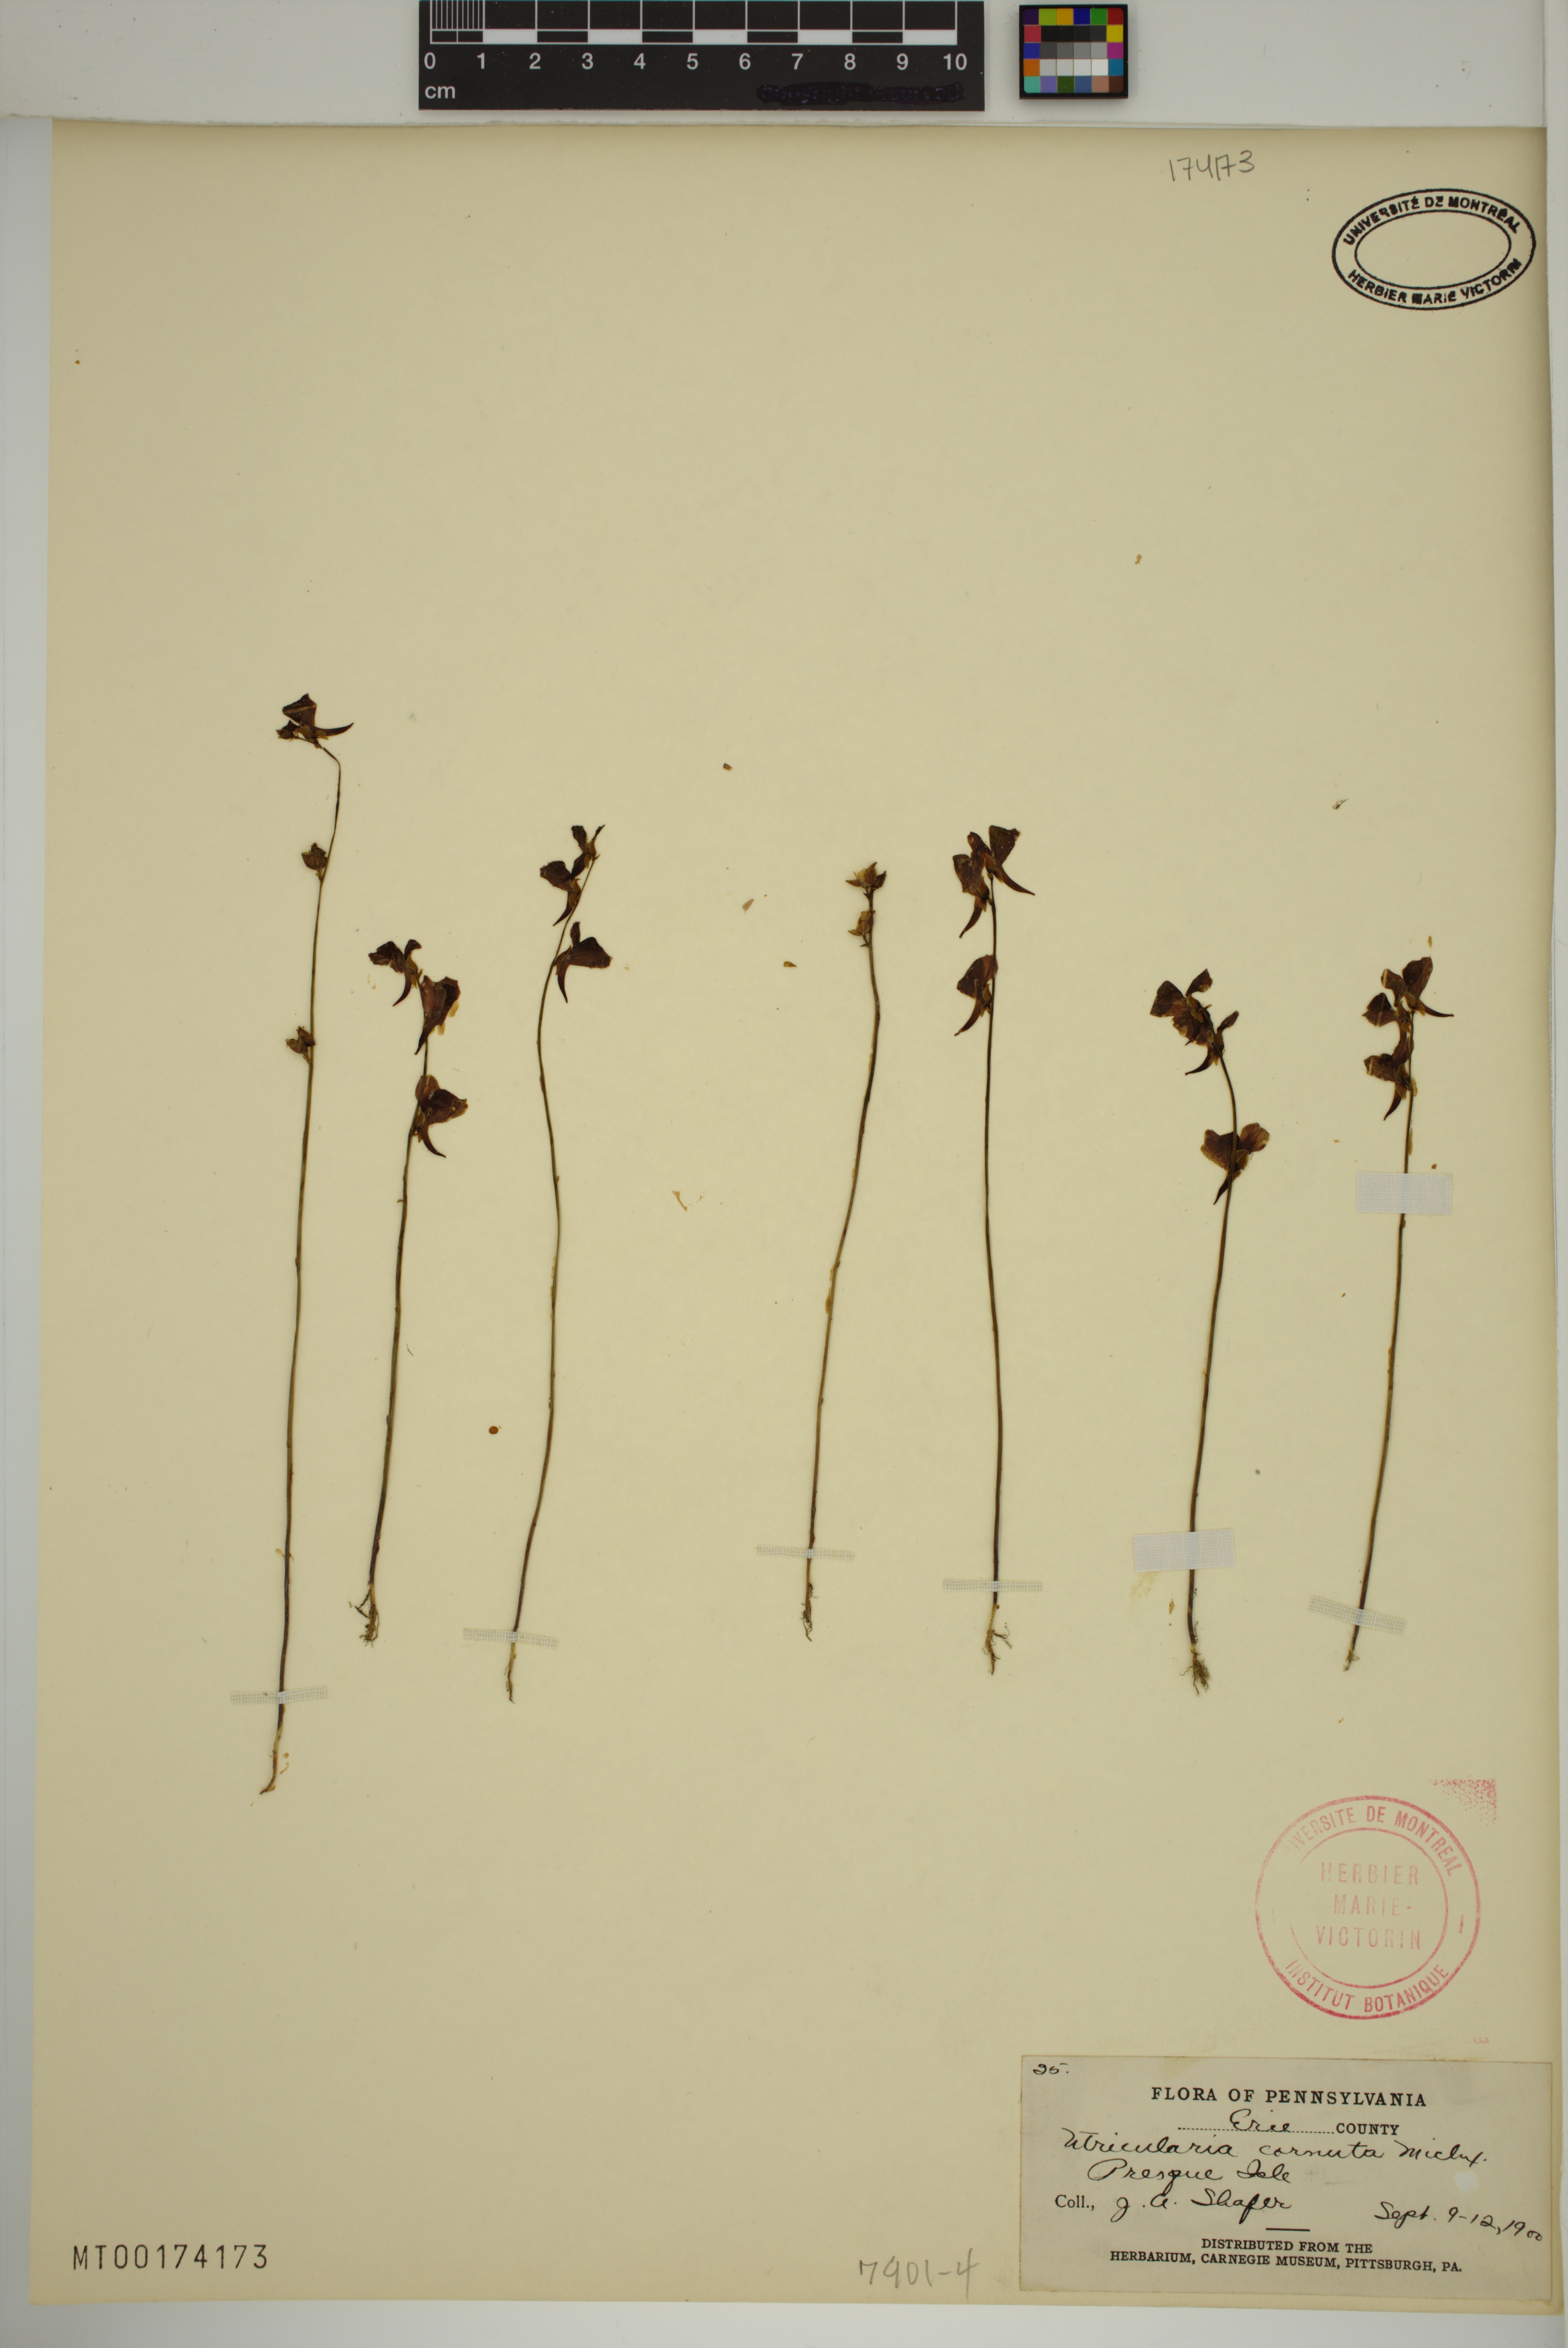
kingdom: Plantae
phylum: Tracheophyta
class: Magnoliopsida
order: Lamiales
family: Lentibulariaceae
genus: Utricularia
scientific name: Utricularia cornuta
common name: Horned bladderwort
